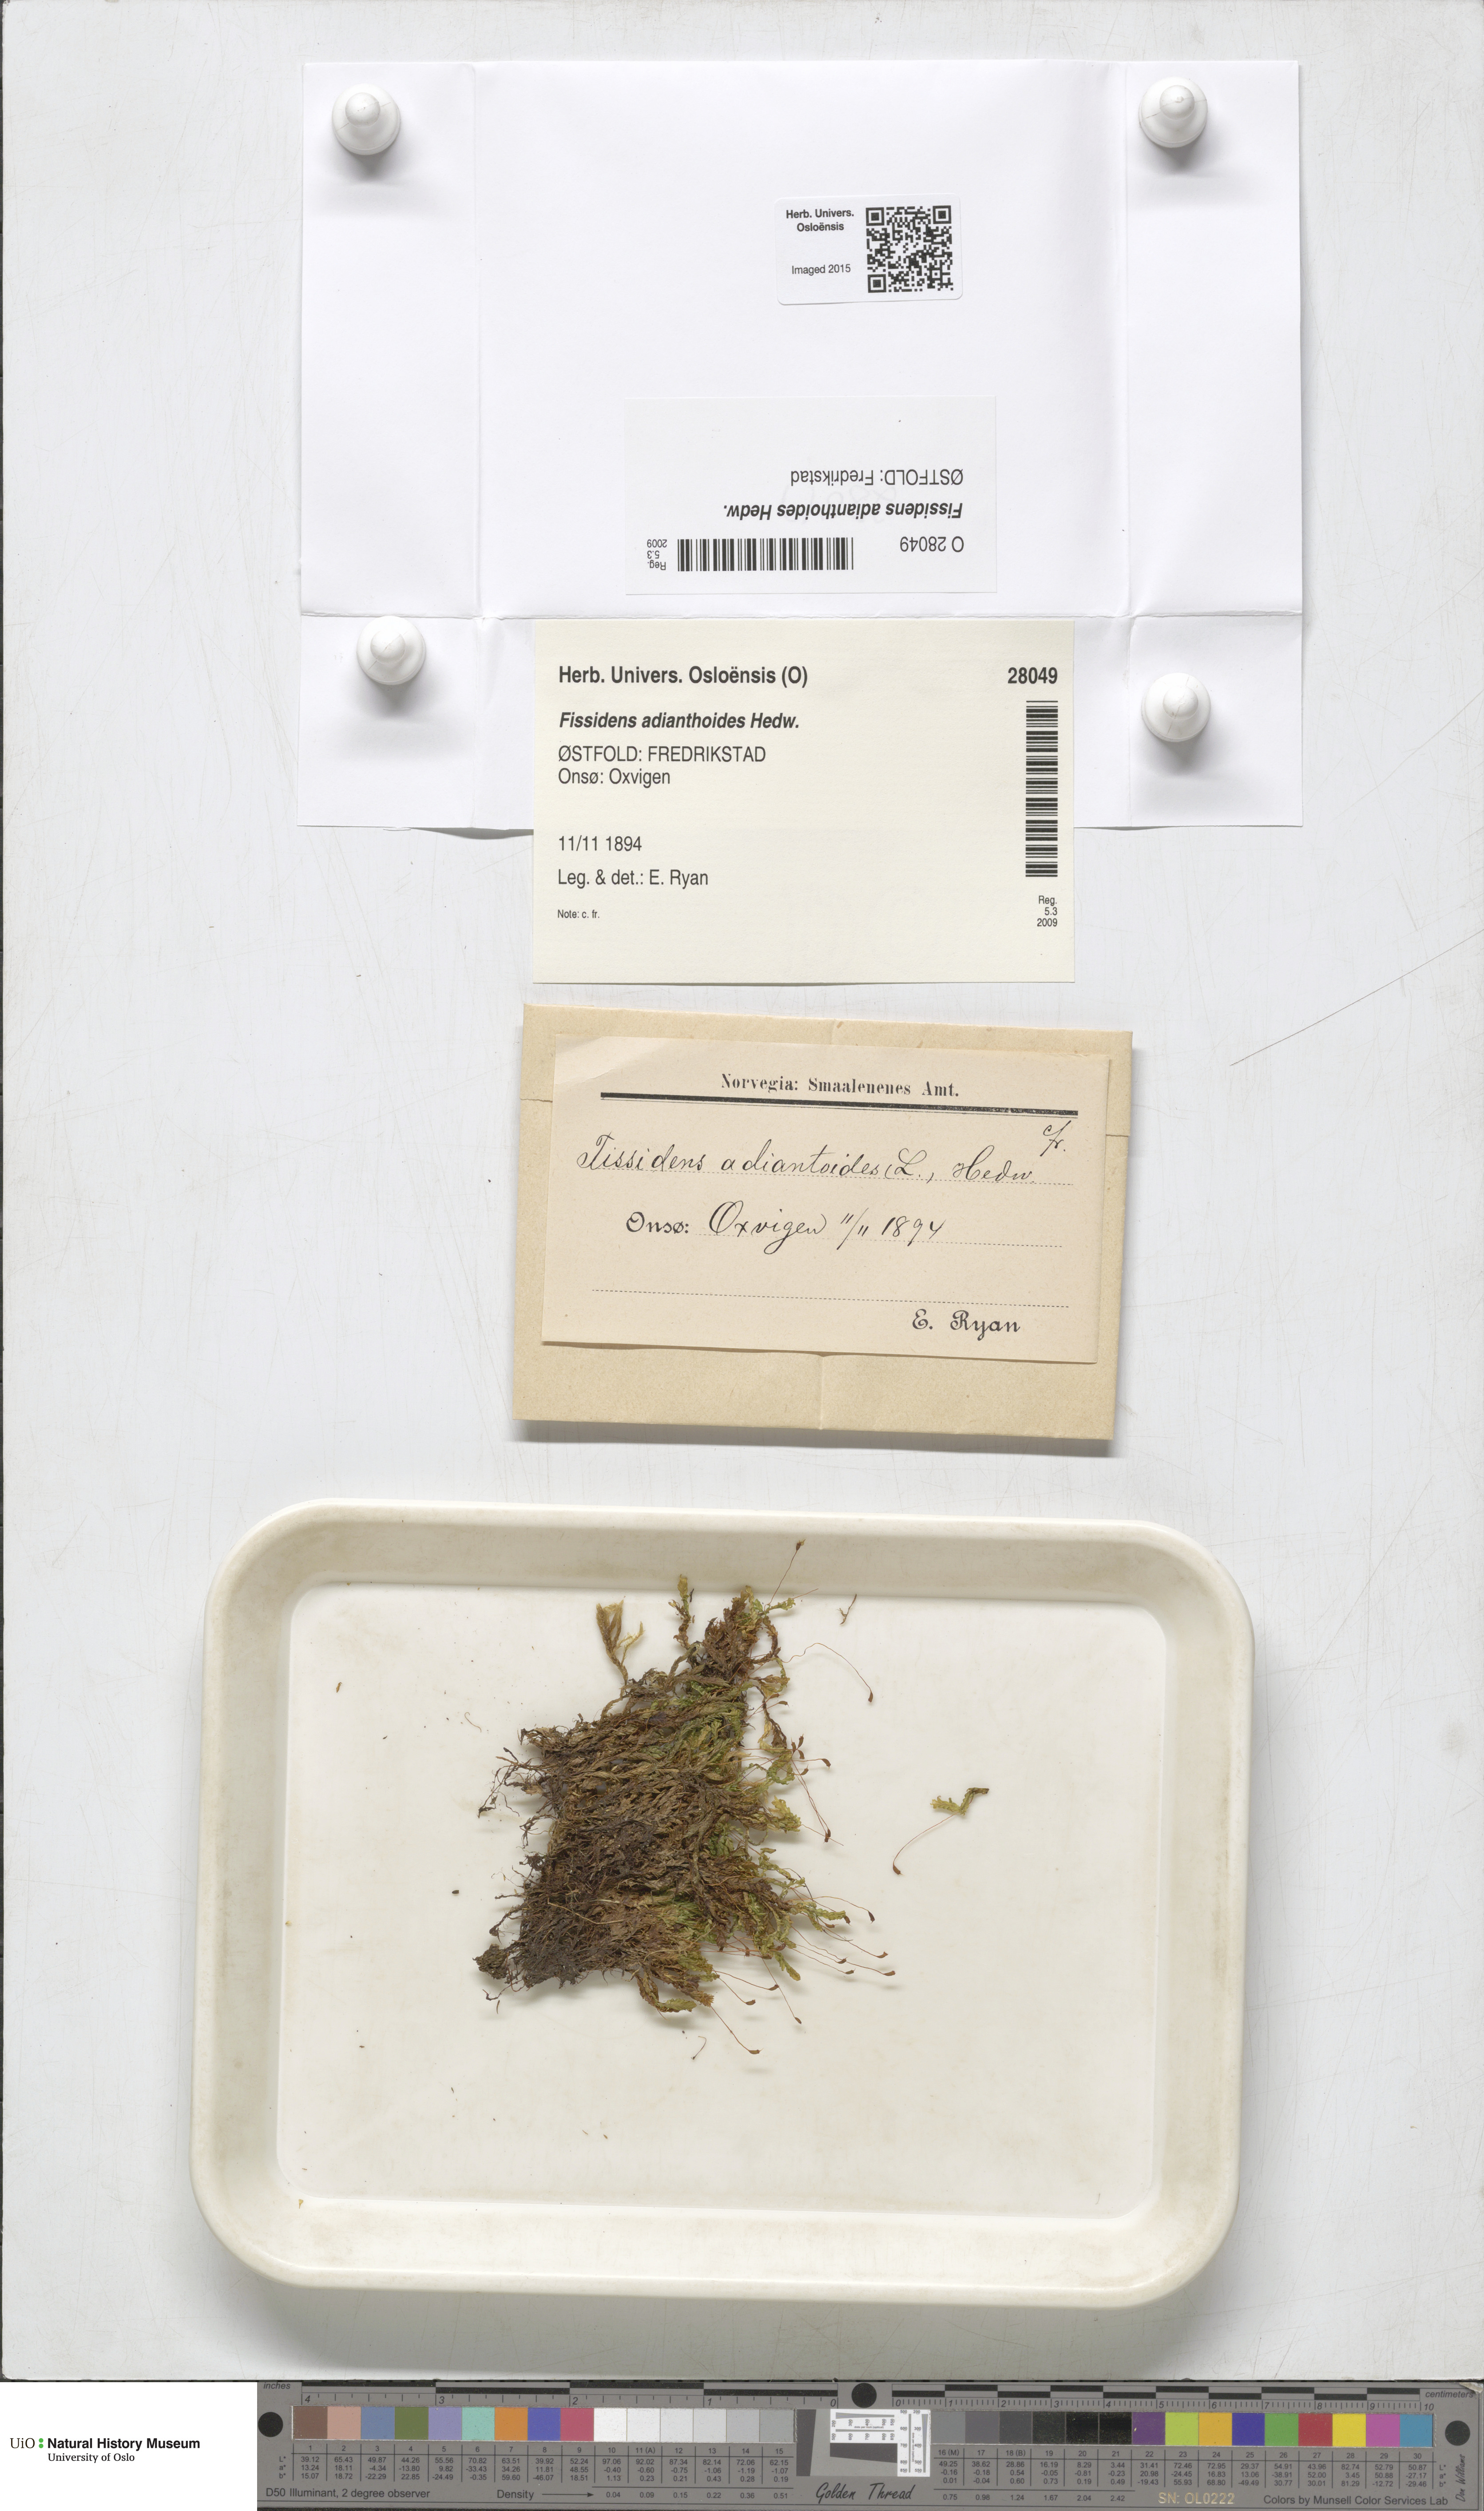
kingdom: Plantae
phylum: Bryophyta
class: Bryopsida
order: Dicranales
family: Fissidentaceae
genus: Fissidens
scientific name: Fissidens adianthoides
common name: Maidenhair pocket moss
